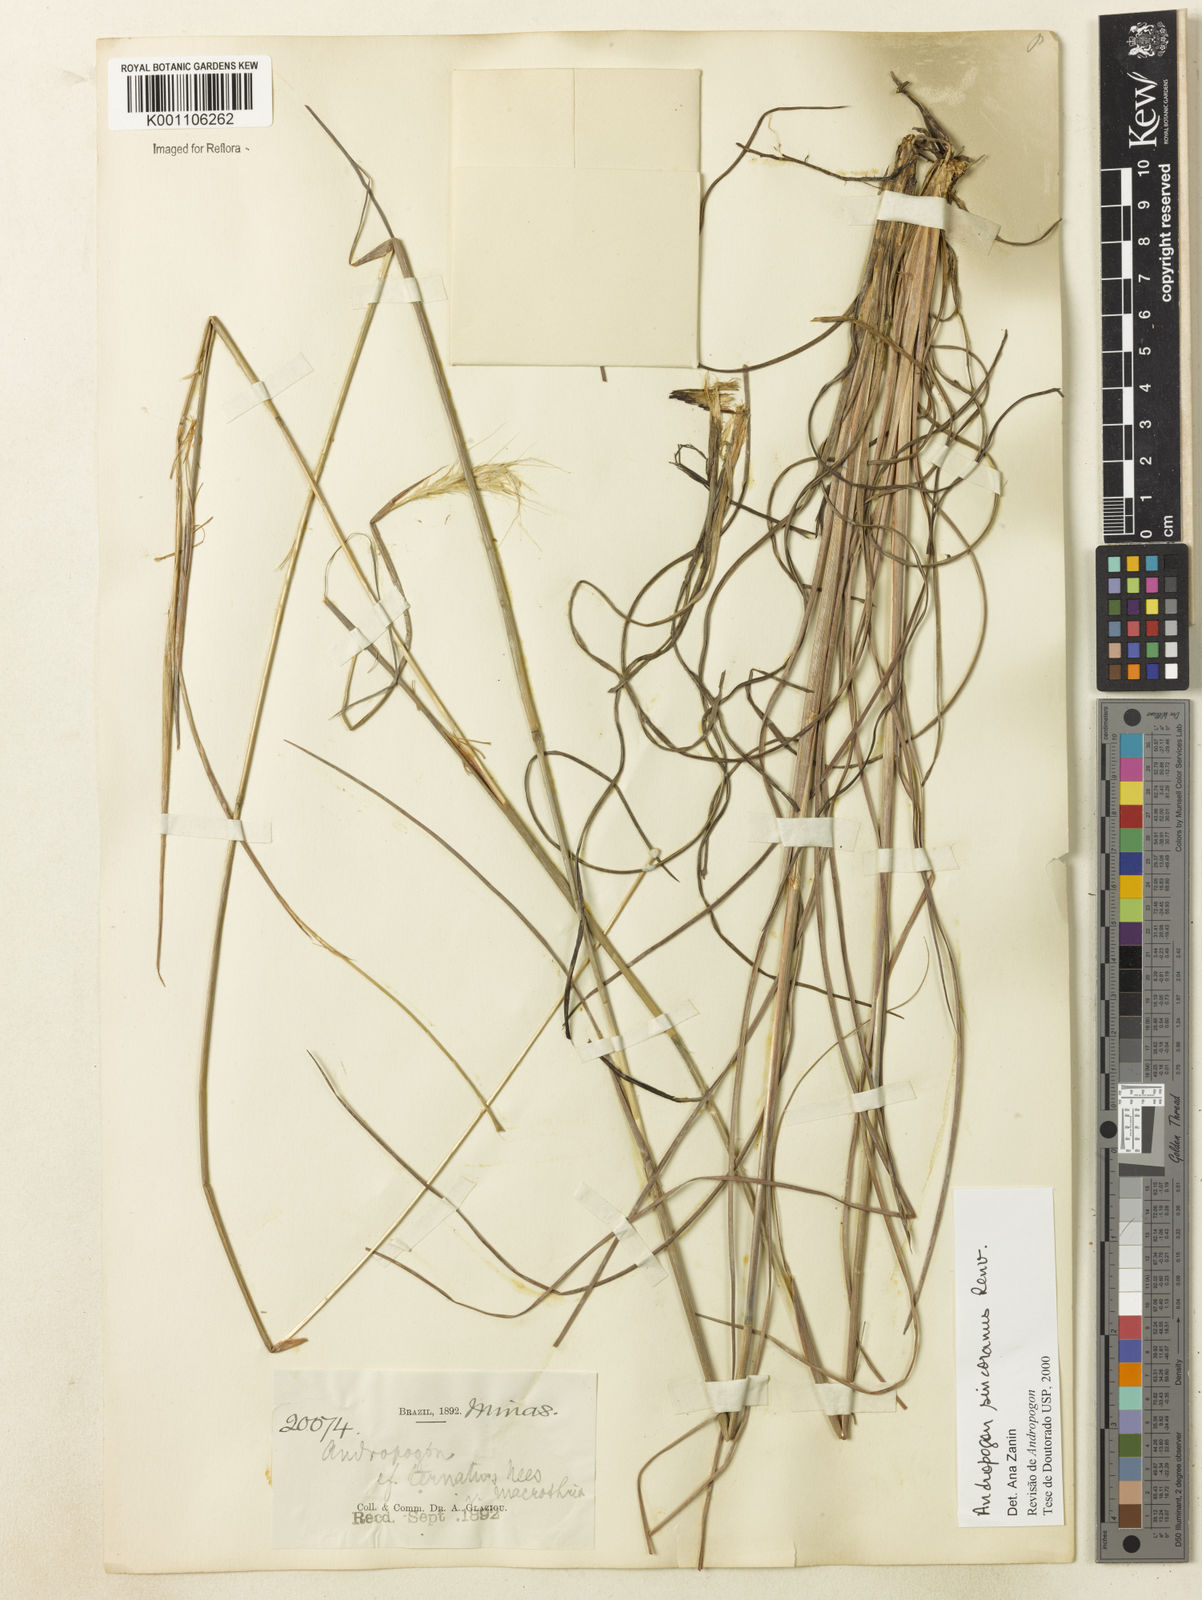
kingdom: Plantae
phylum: Tracheophyta
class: Liliopsida
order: Poales
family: Poaceae
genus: Andropogon
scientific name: Andropogon ingratus
